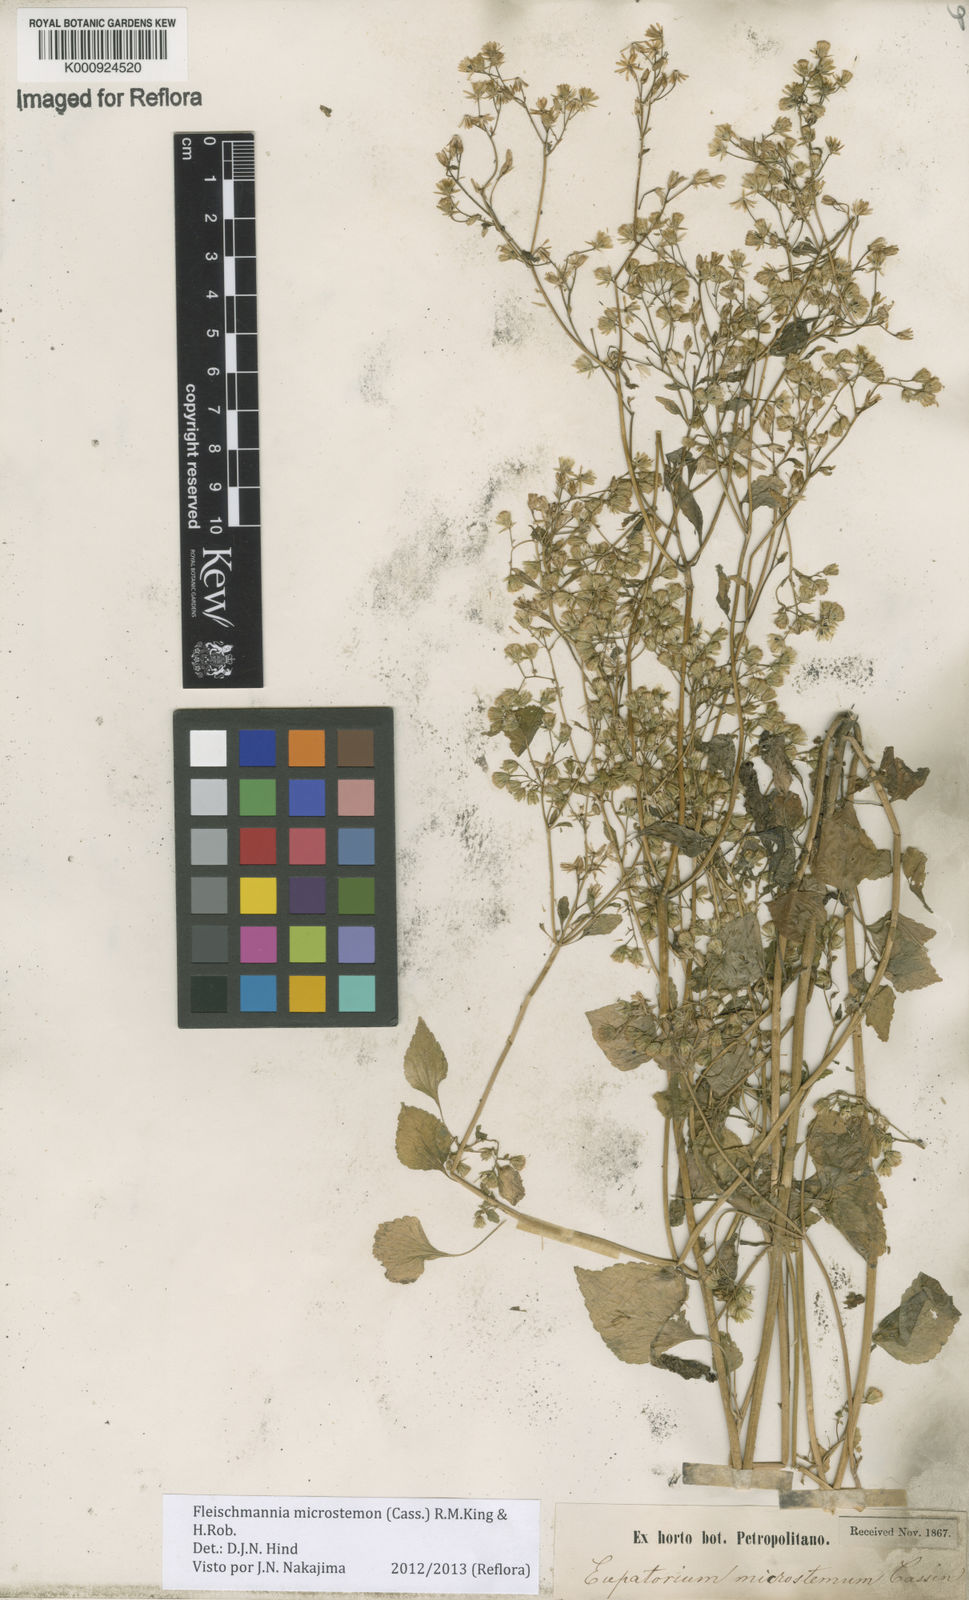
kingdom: Plantae
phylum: Tracheophyta
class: Magnoliopsida
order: Asterales
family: Asteraceae
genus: Fleischmannia
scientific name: Fleischmannia microstemon
